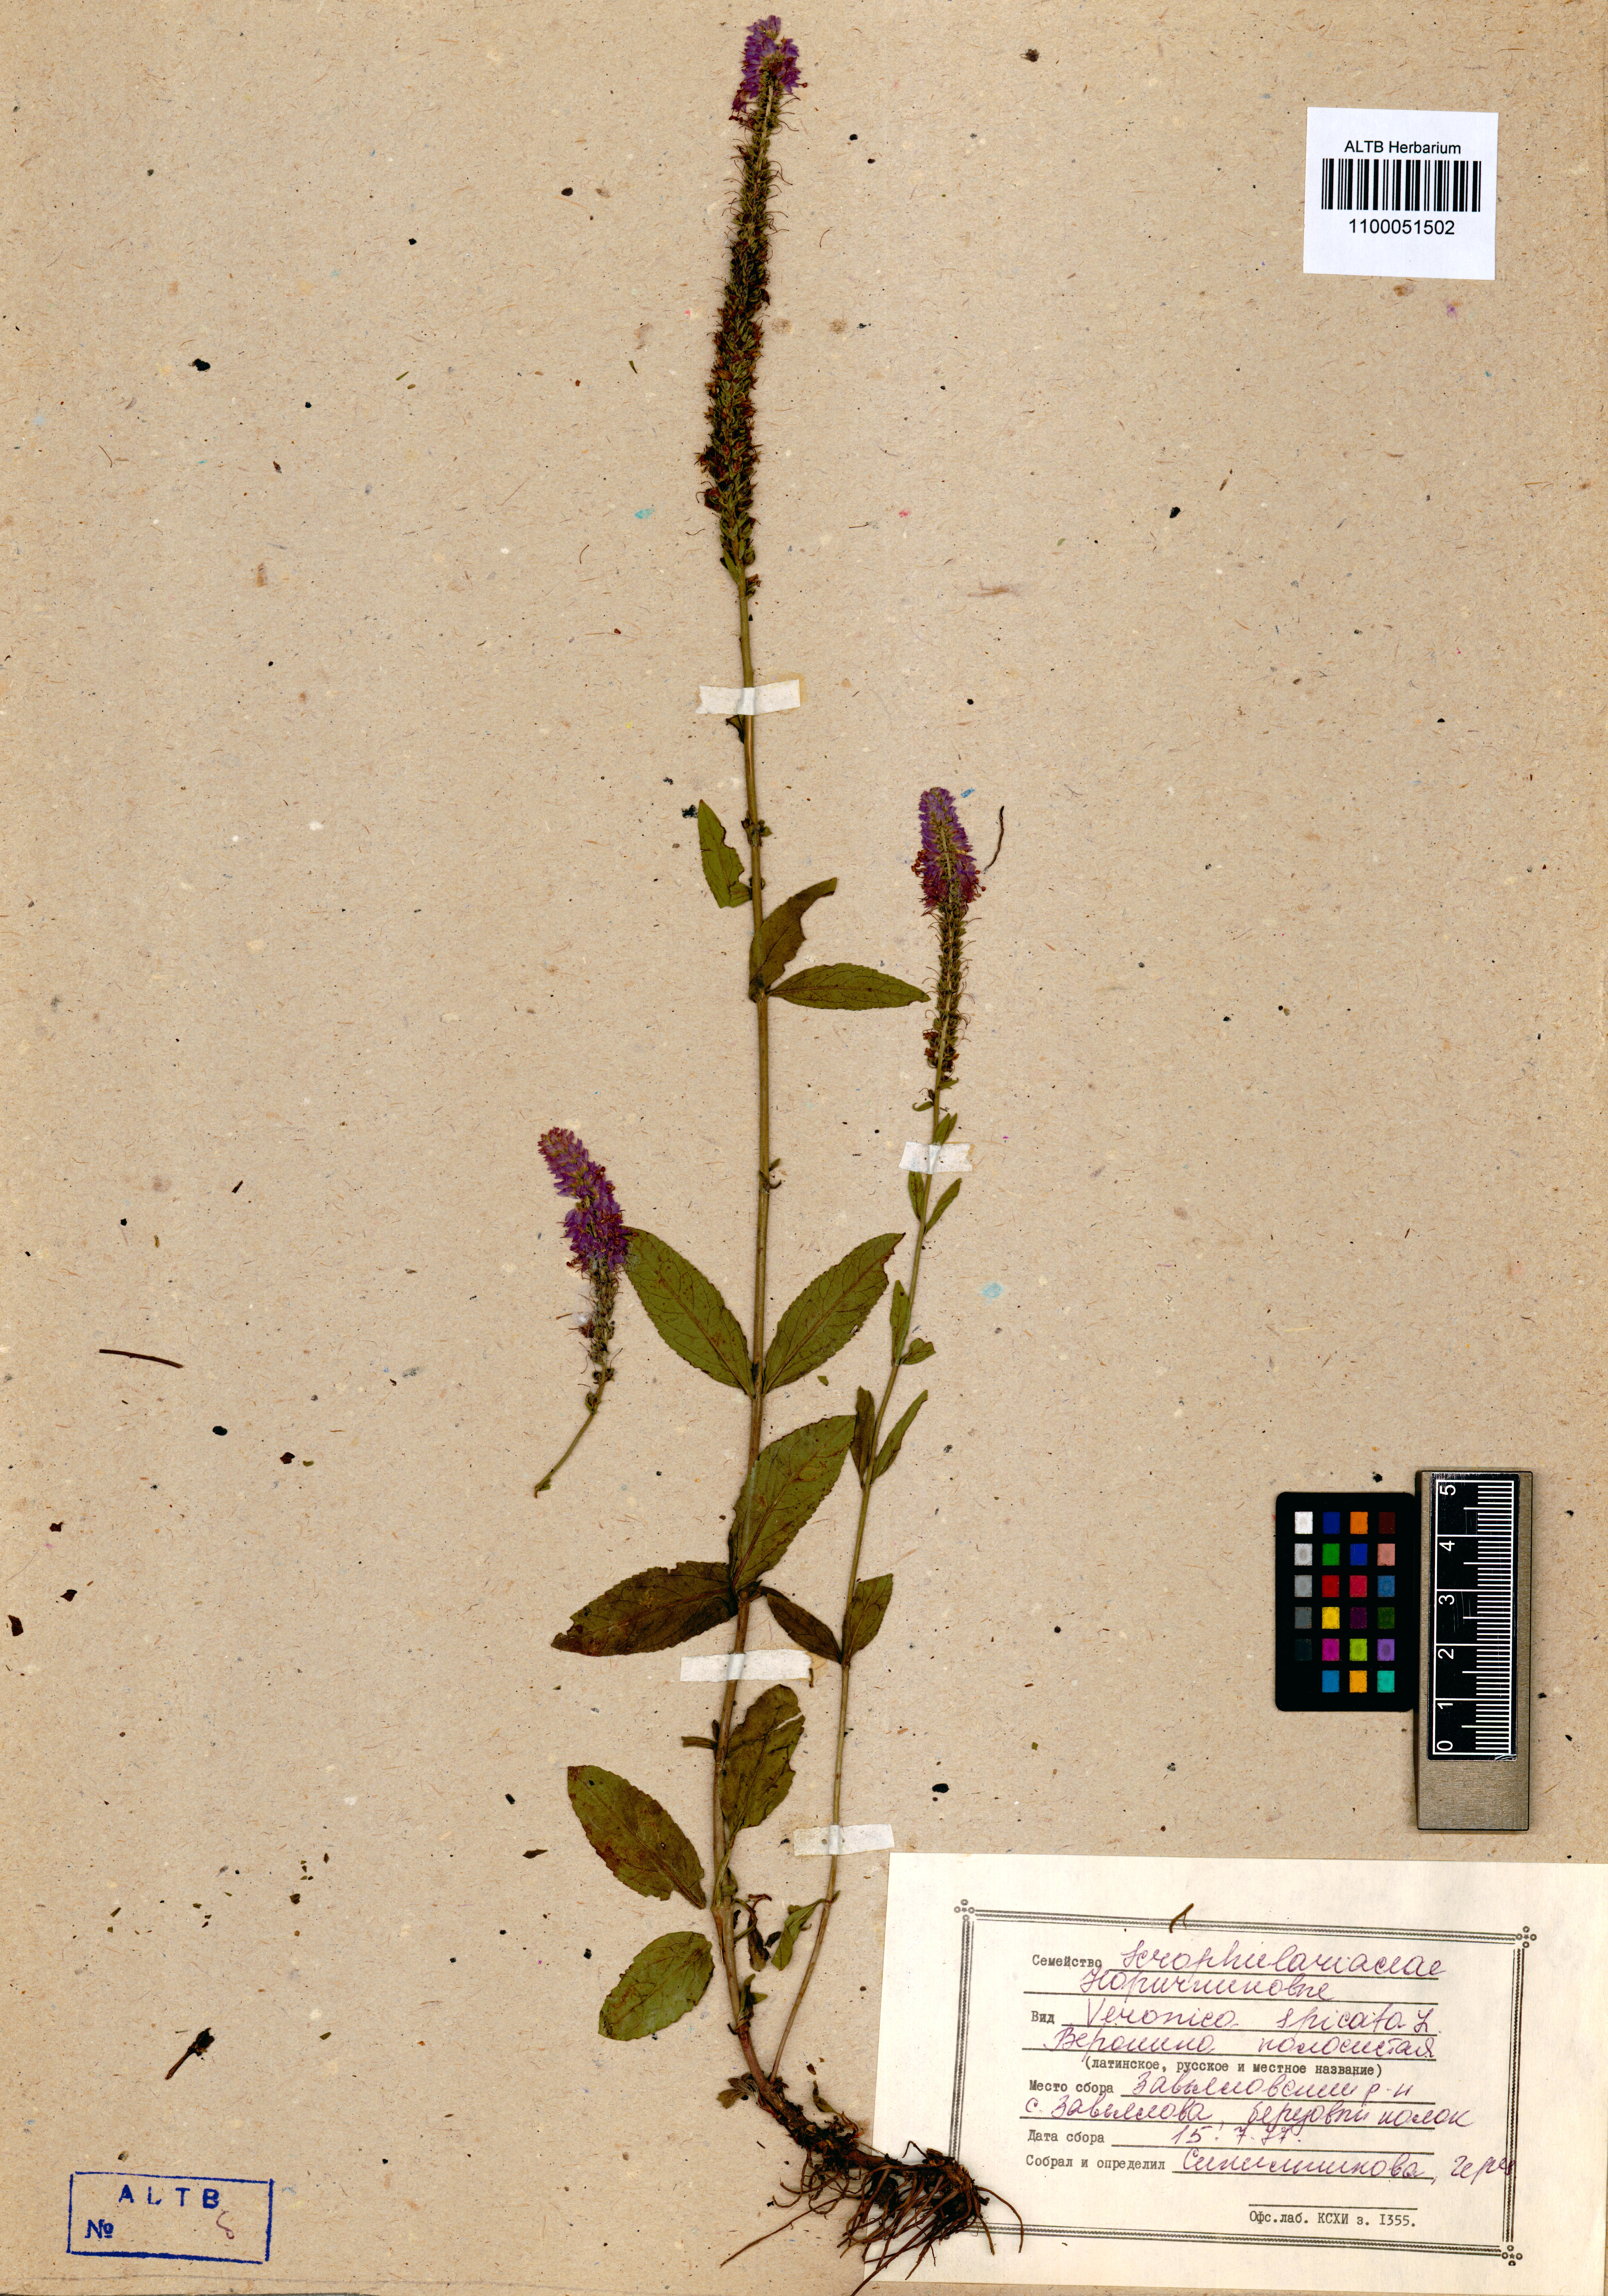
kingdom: Plantae
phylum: Tracheophyta
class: Magnoliopsida
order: Lamiales
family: Plantaginaceae
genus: Veronica
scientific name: Veronica spicata
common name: Spiked speedwell
